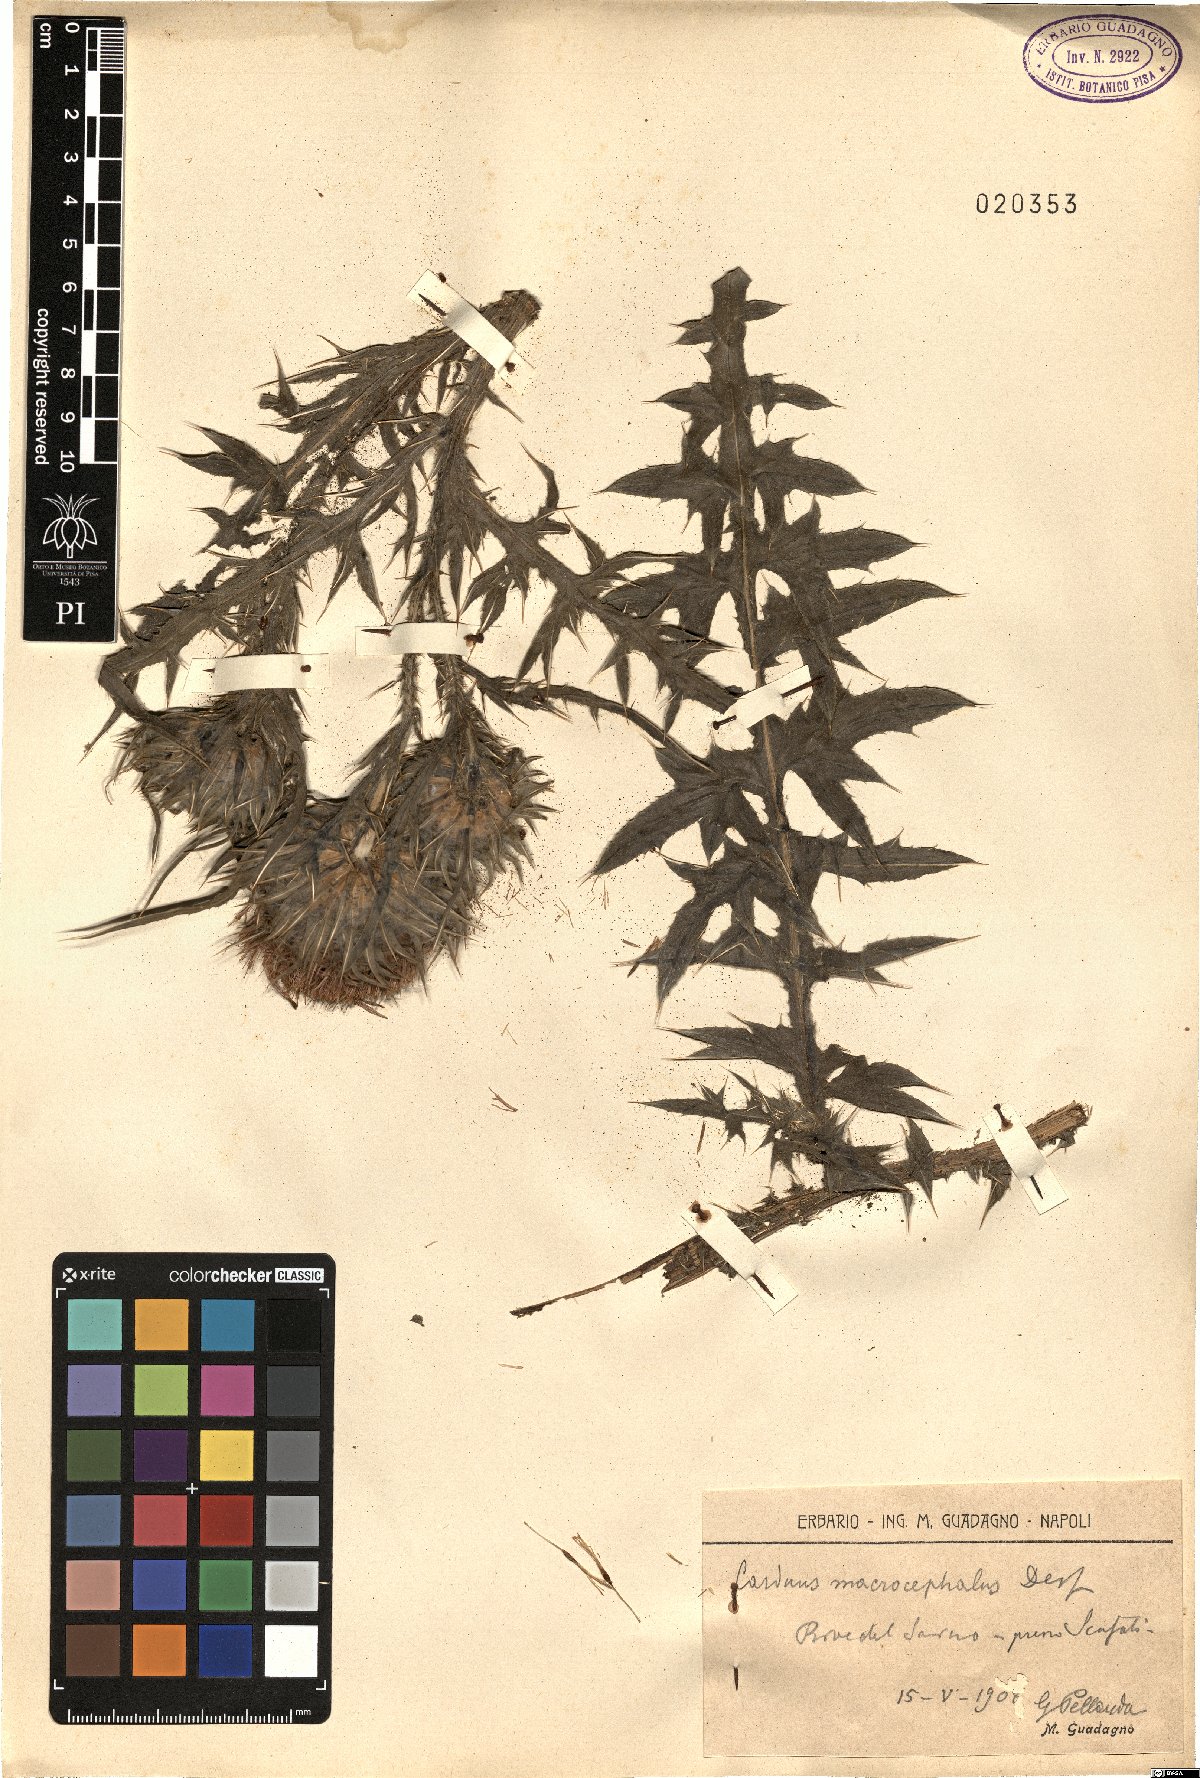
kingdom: Plantae
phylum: Tracheophyta
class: Magnoliopsida
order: Asterales
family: Asteraceae
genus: Carduus
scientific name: Carduus macrocephalus
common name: Giant thistle
